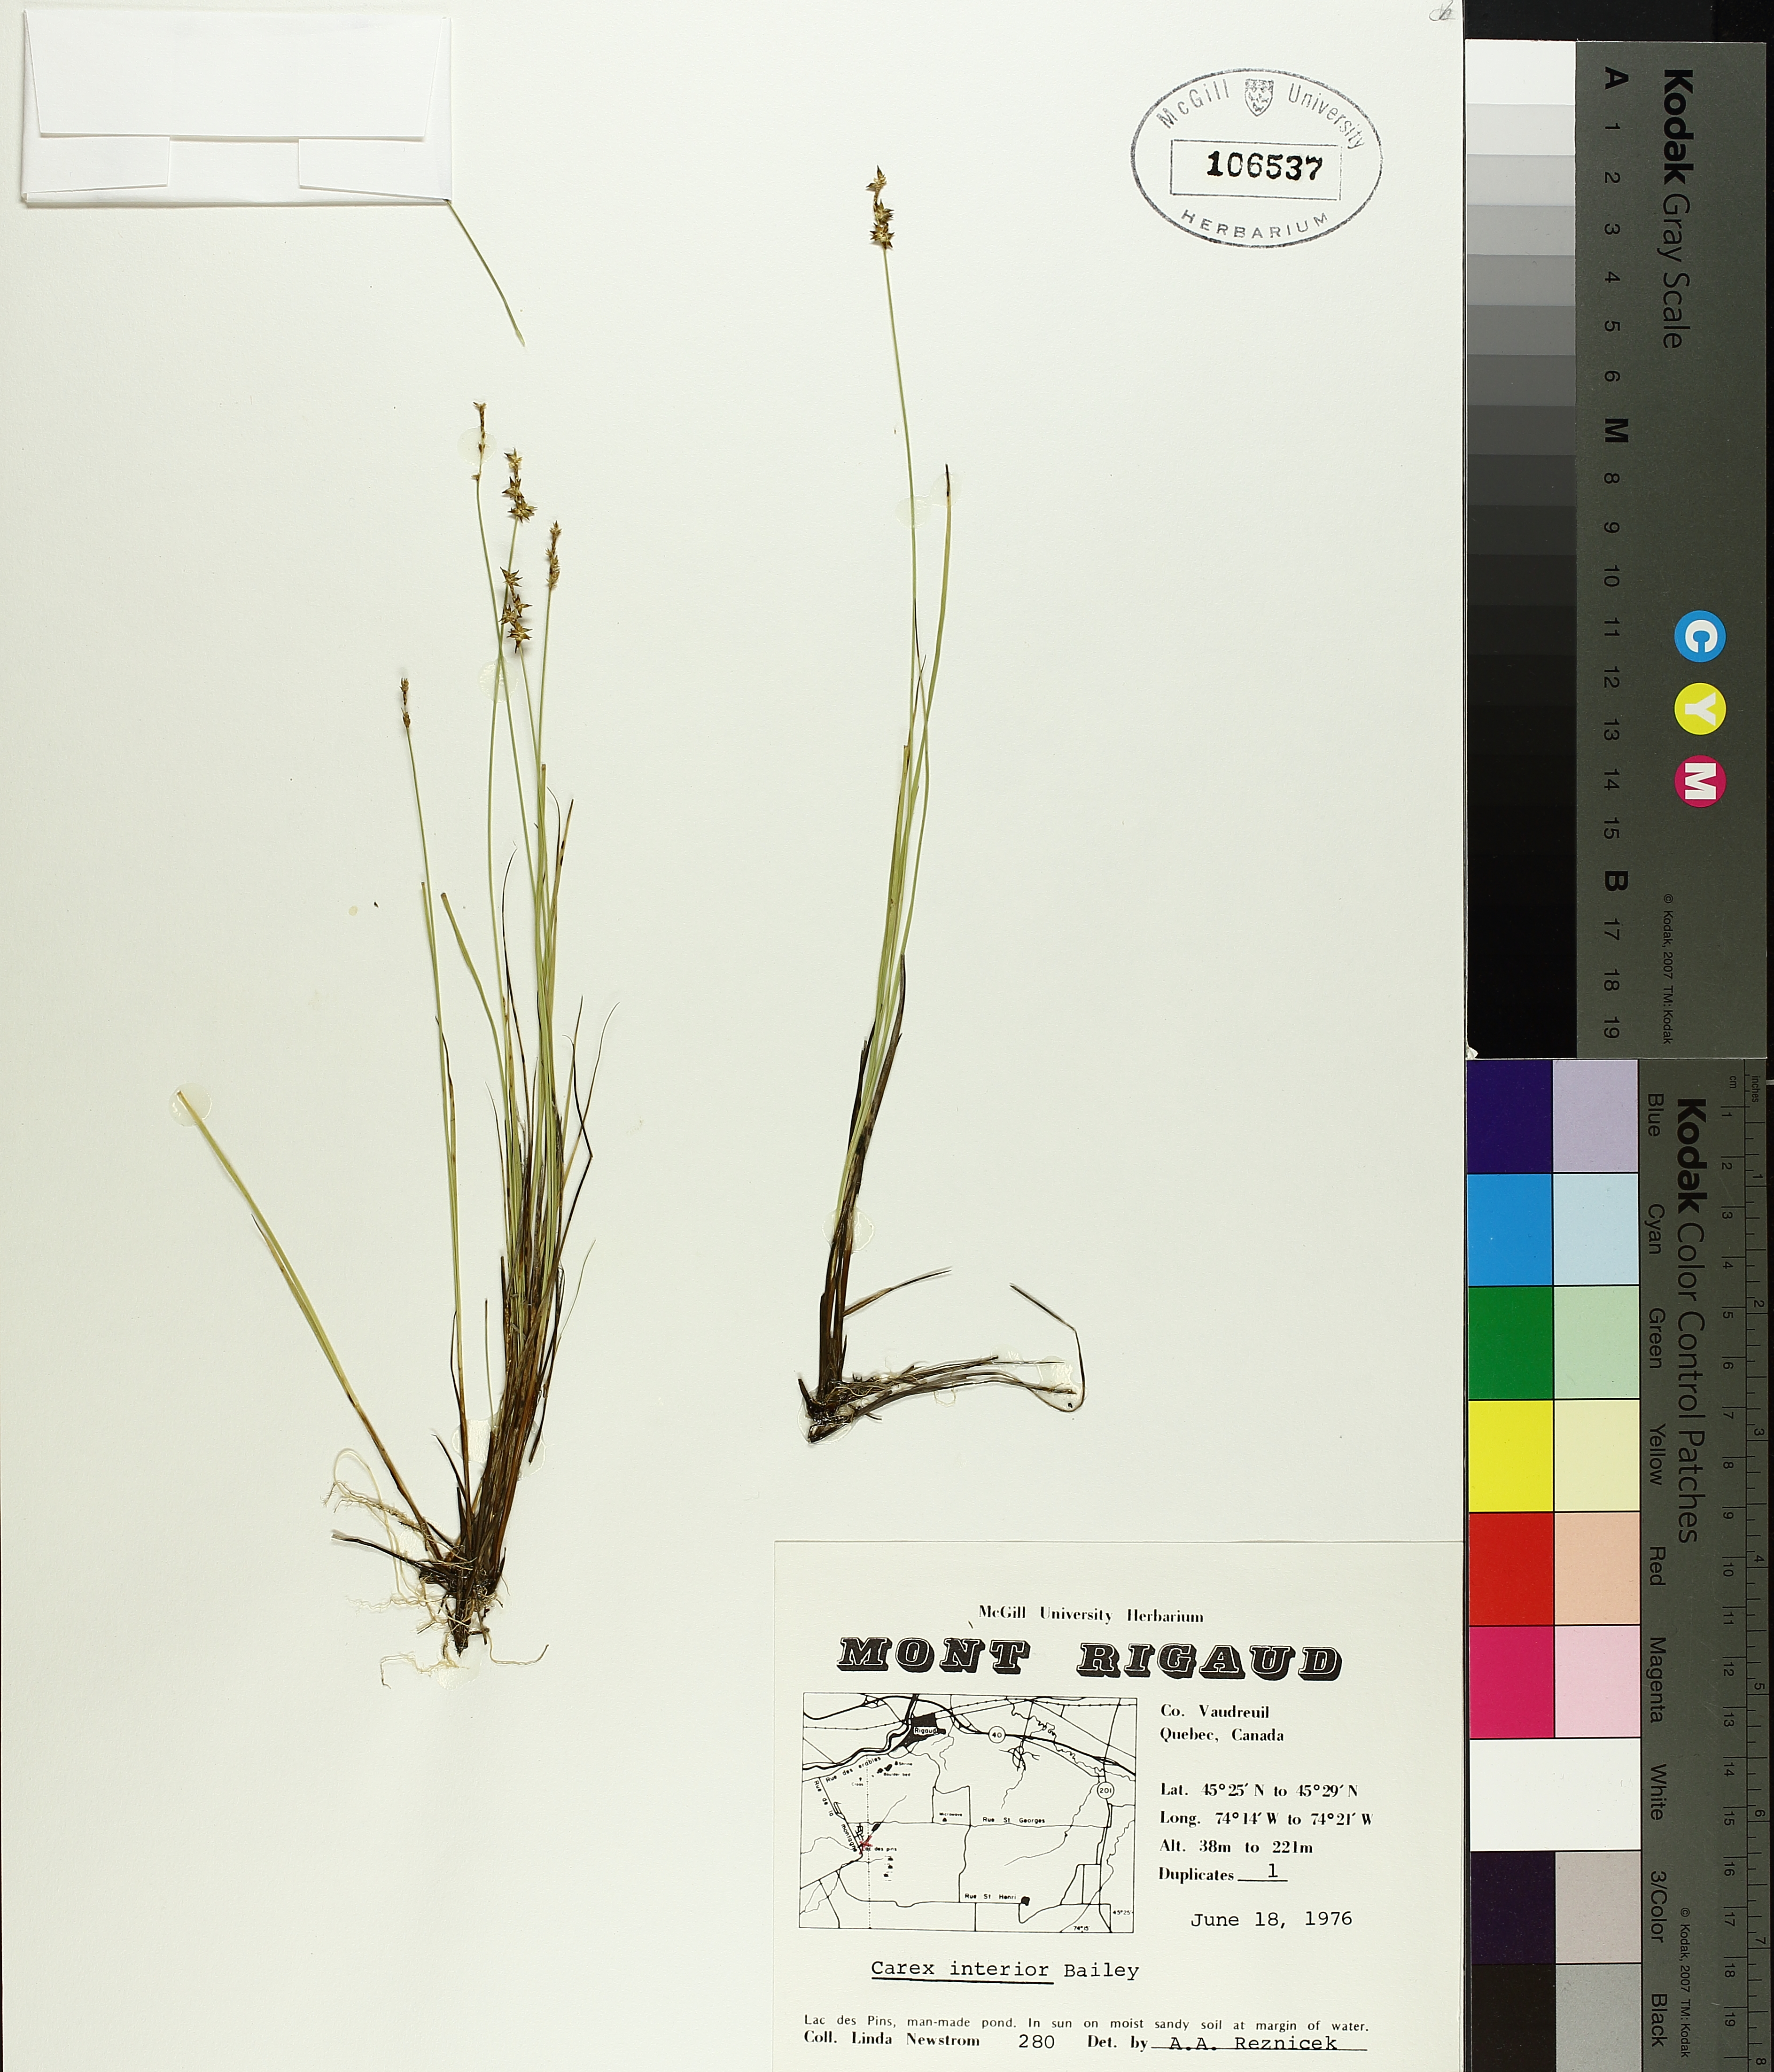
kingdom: Plantae
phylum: Tracheophyta
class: Liliopsida
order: Poales
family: Cyperaceae
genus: Carex
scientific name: Carex interior
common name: Inland sedge
